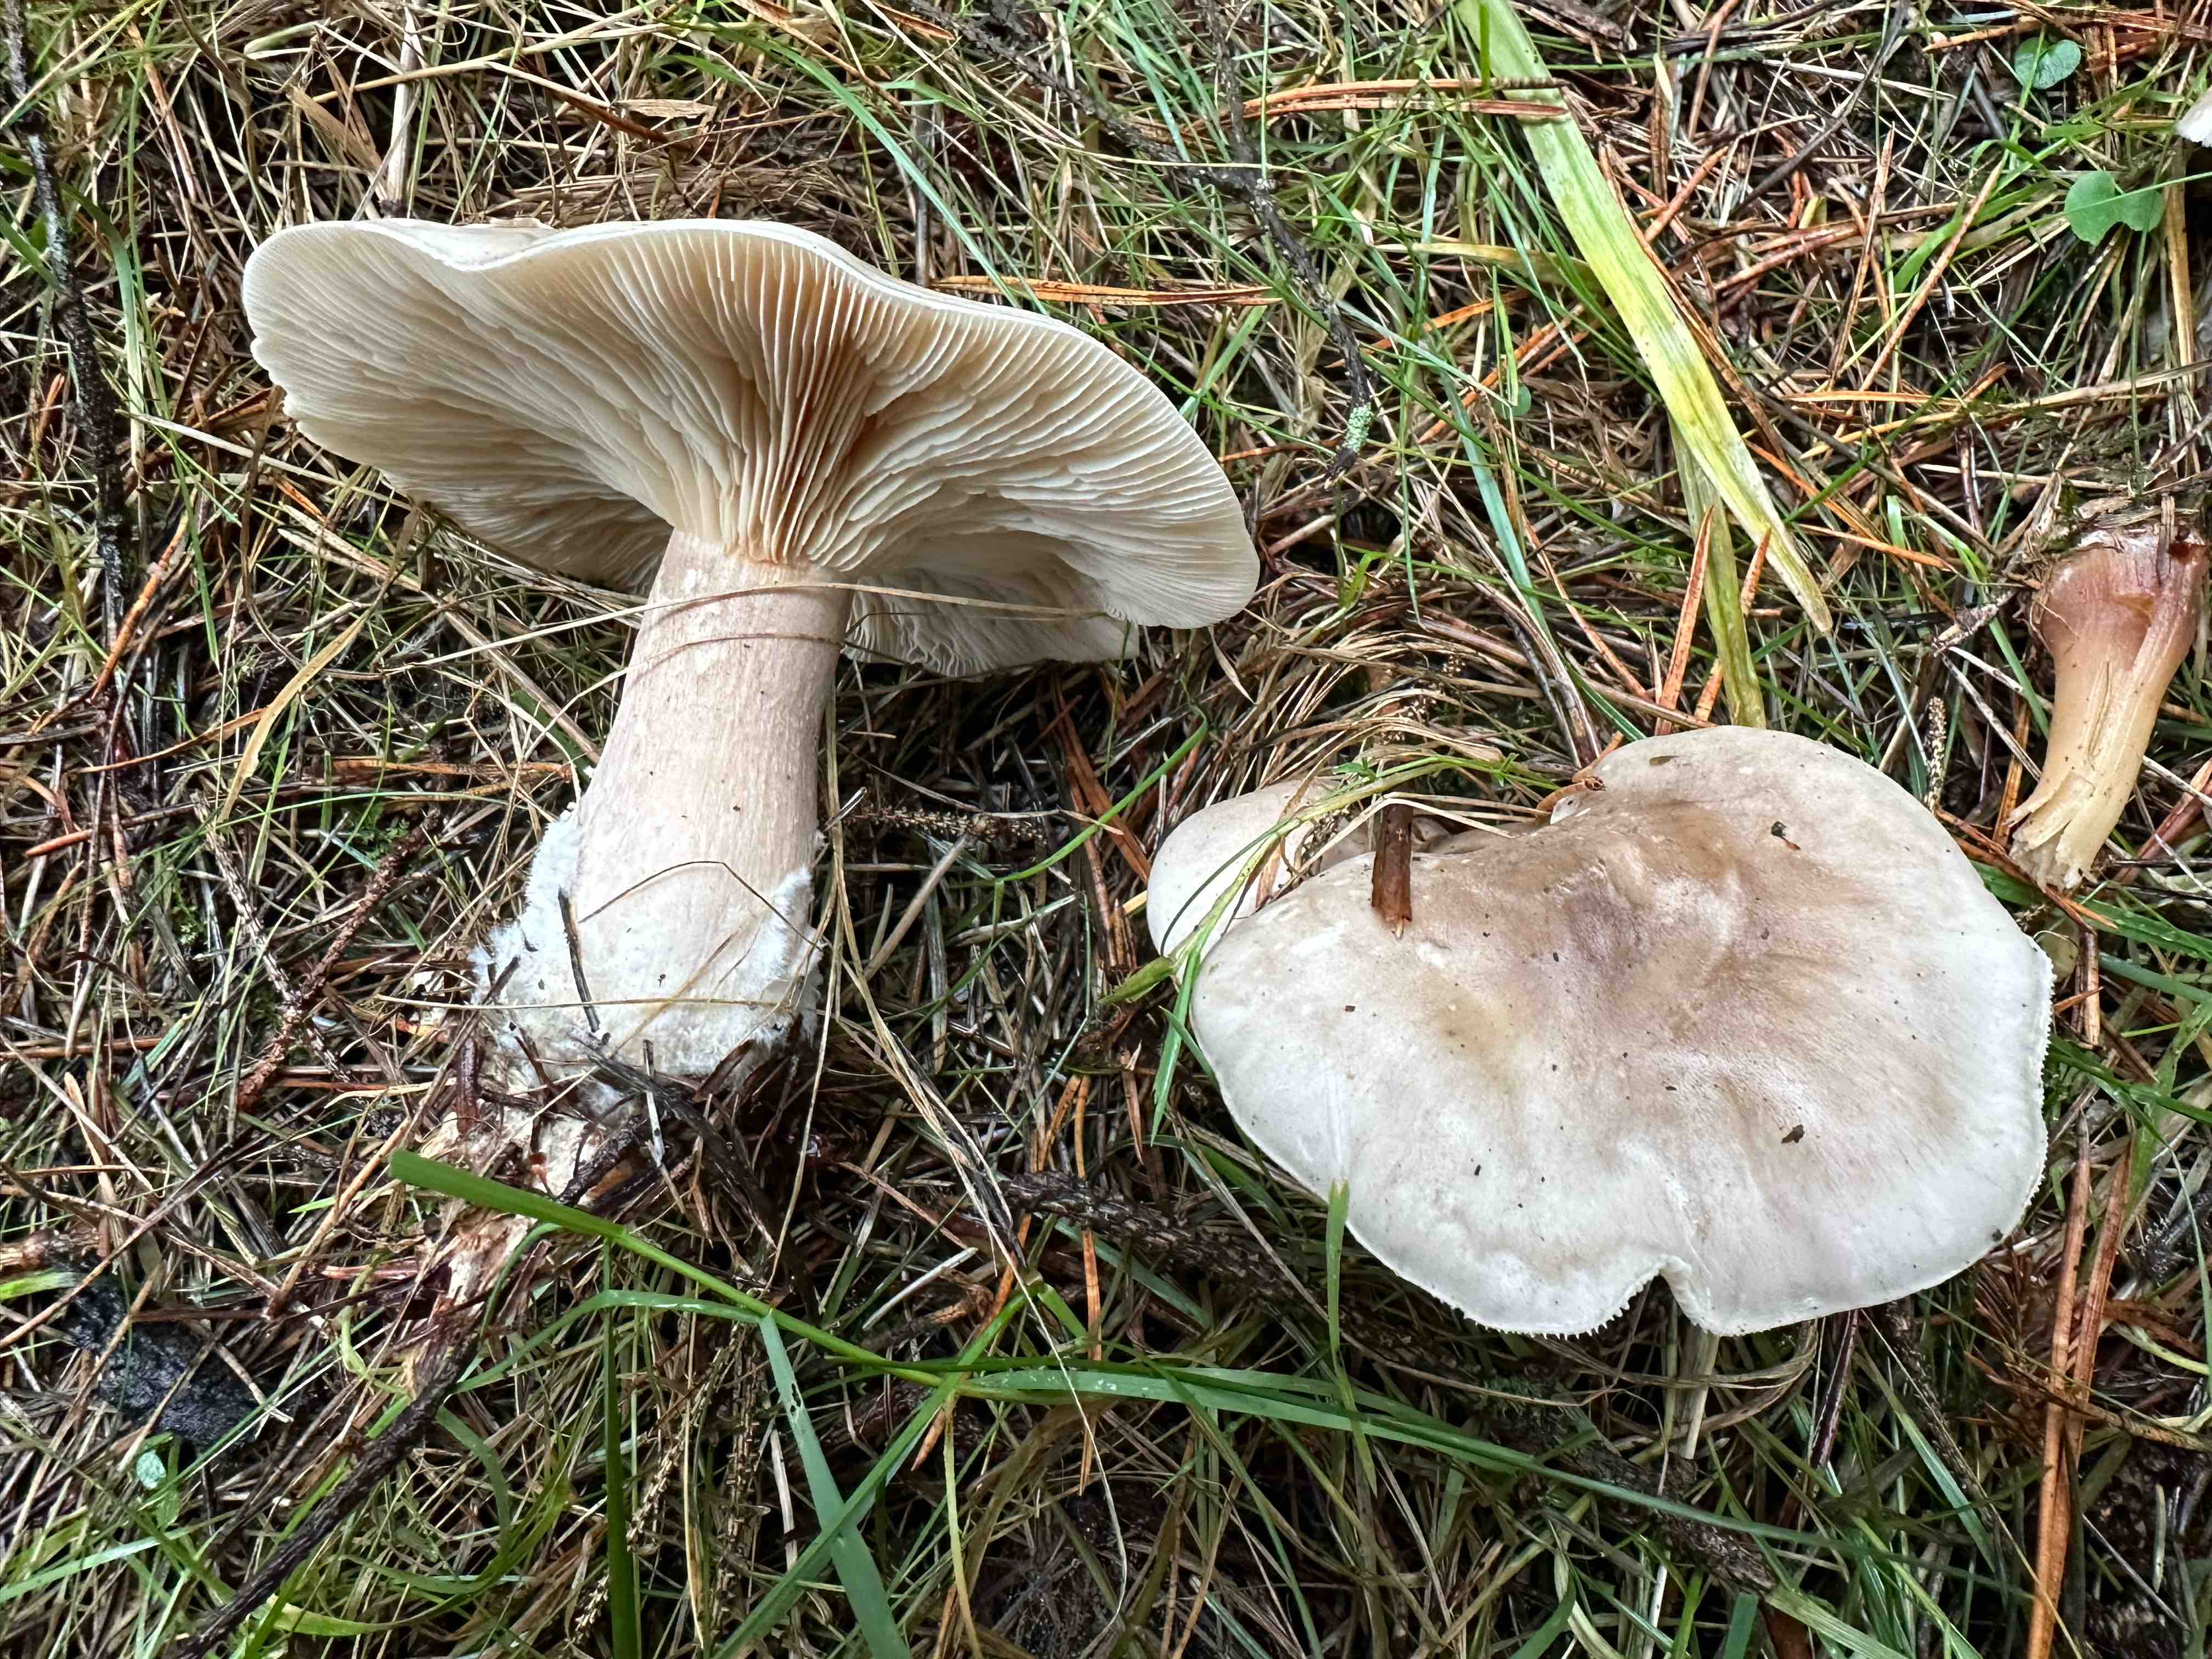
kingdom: Fungi
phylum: Basidiomycota
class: Agaricomycetes
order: Agaricales
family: Tricholomataceae
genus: Clitocybe
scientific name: Clitocybe nebularis
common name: tåge-tragthat
